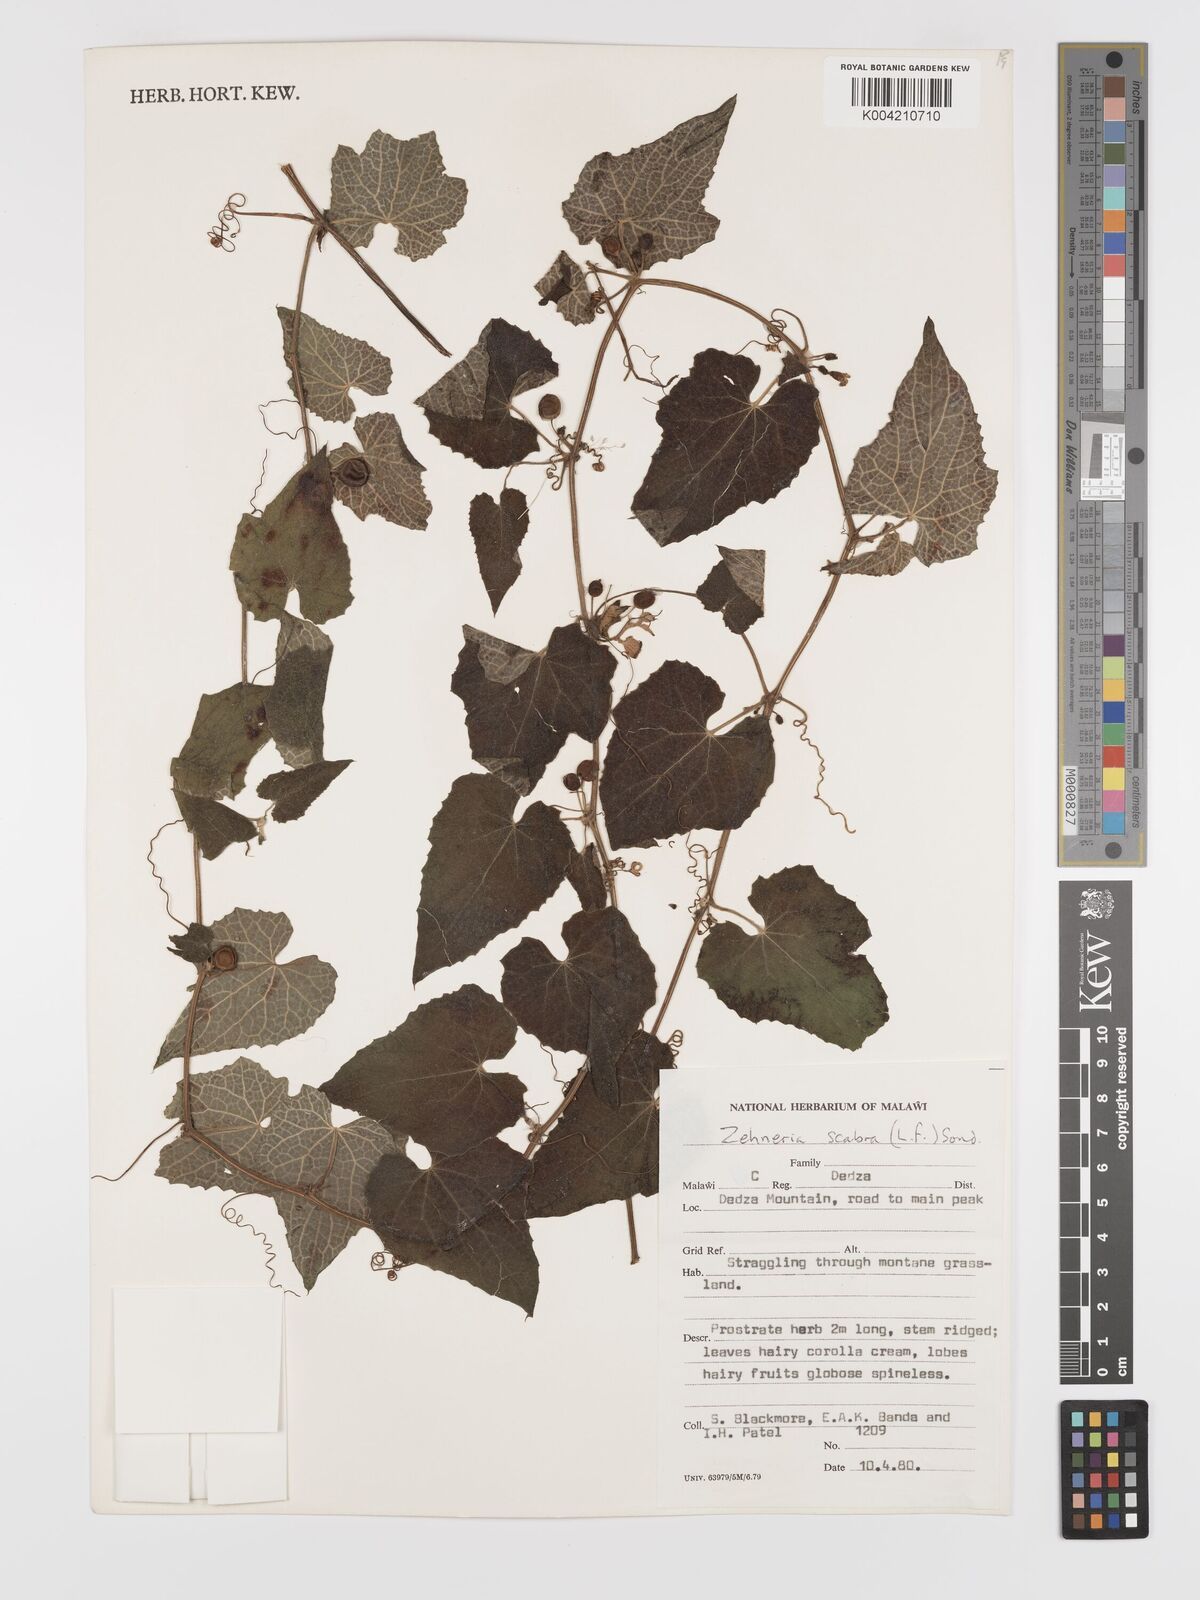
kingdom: Plantae
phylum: Tracheophyta
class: Magnoliopsida
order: Cucurbitales
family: Cucurbitaceae
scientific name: Cucurbitaceae
